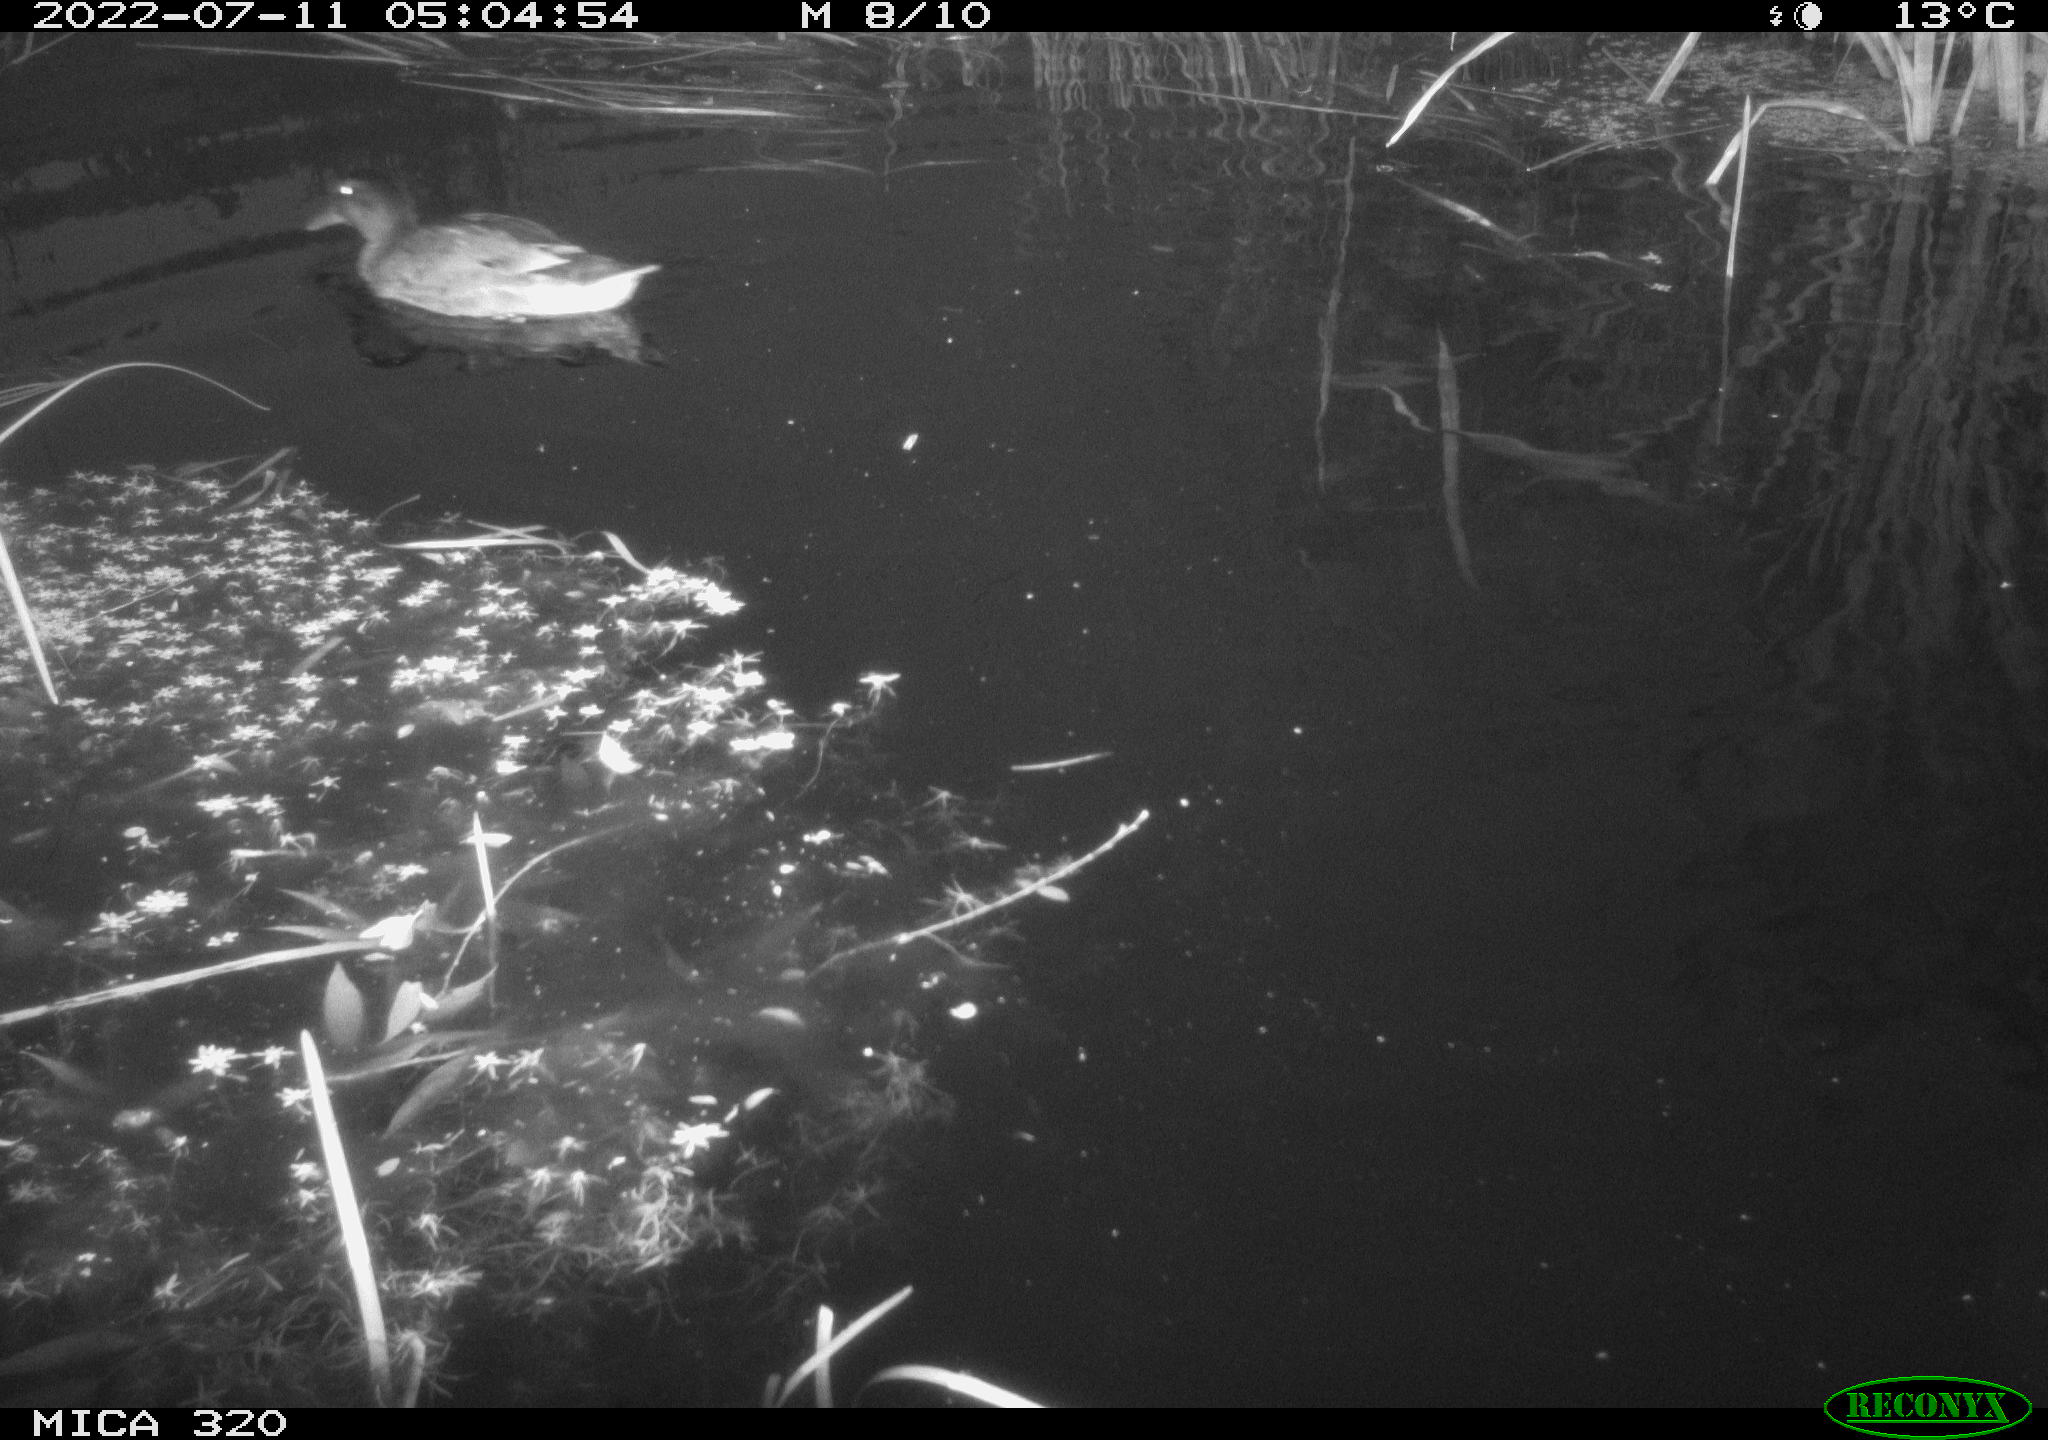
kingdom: Animalia
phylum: Chordata
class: Aves
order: Anseriformes
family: Anatidae
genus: Mareca
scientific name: Mareca strepera
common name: Gadwall
